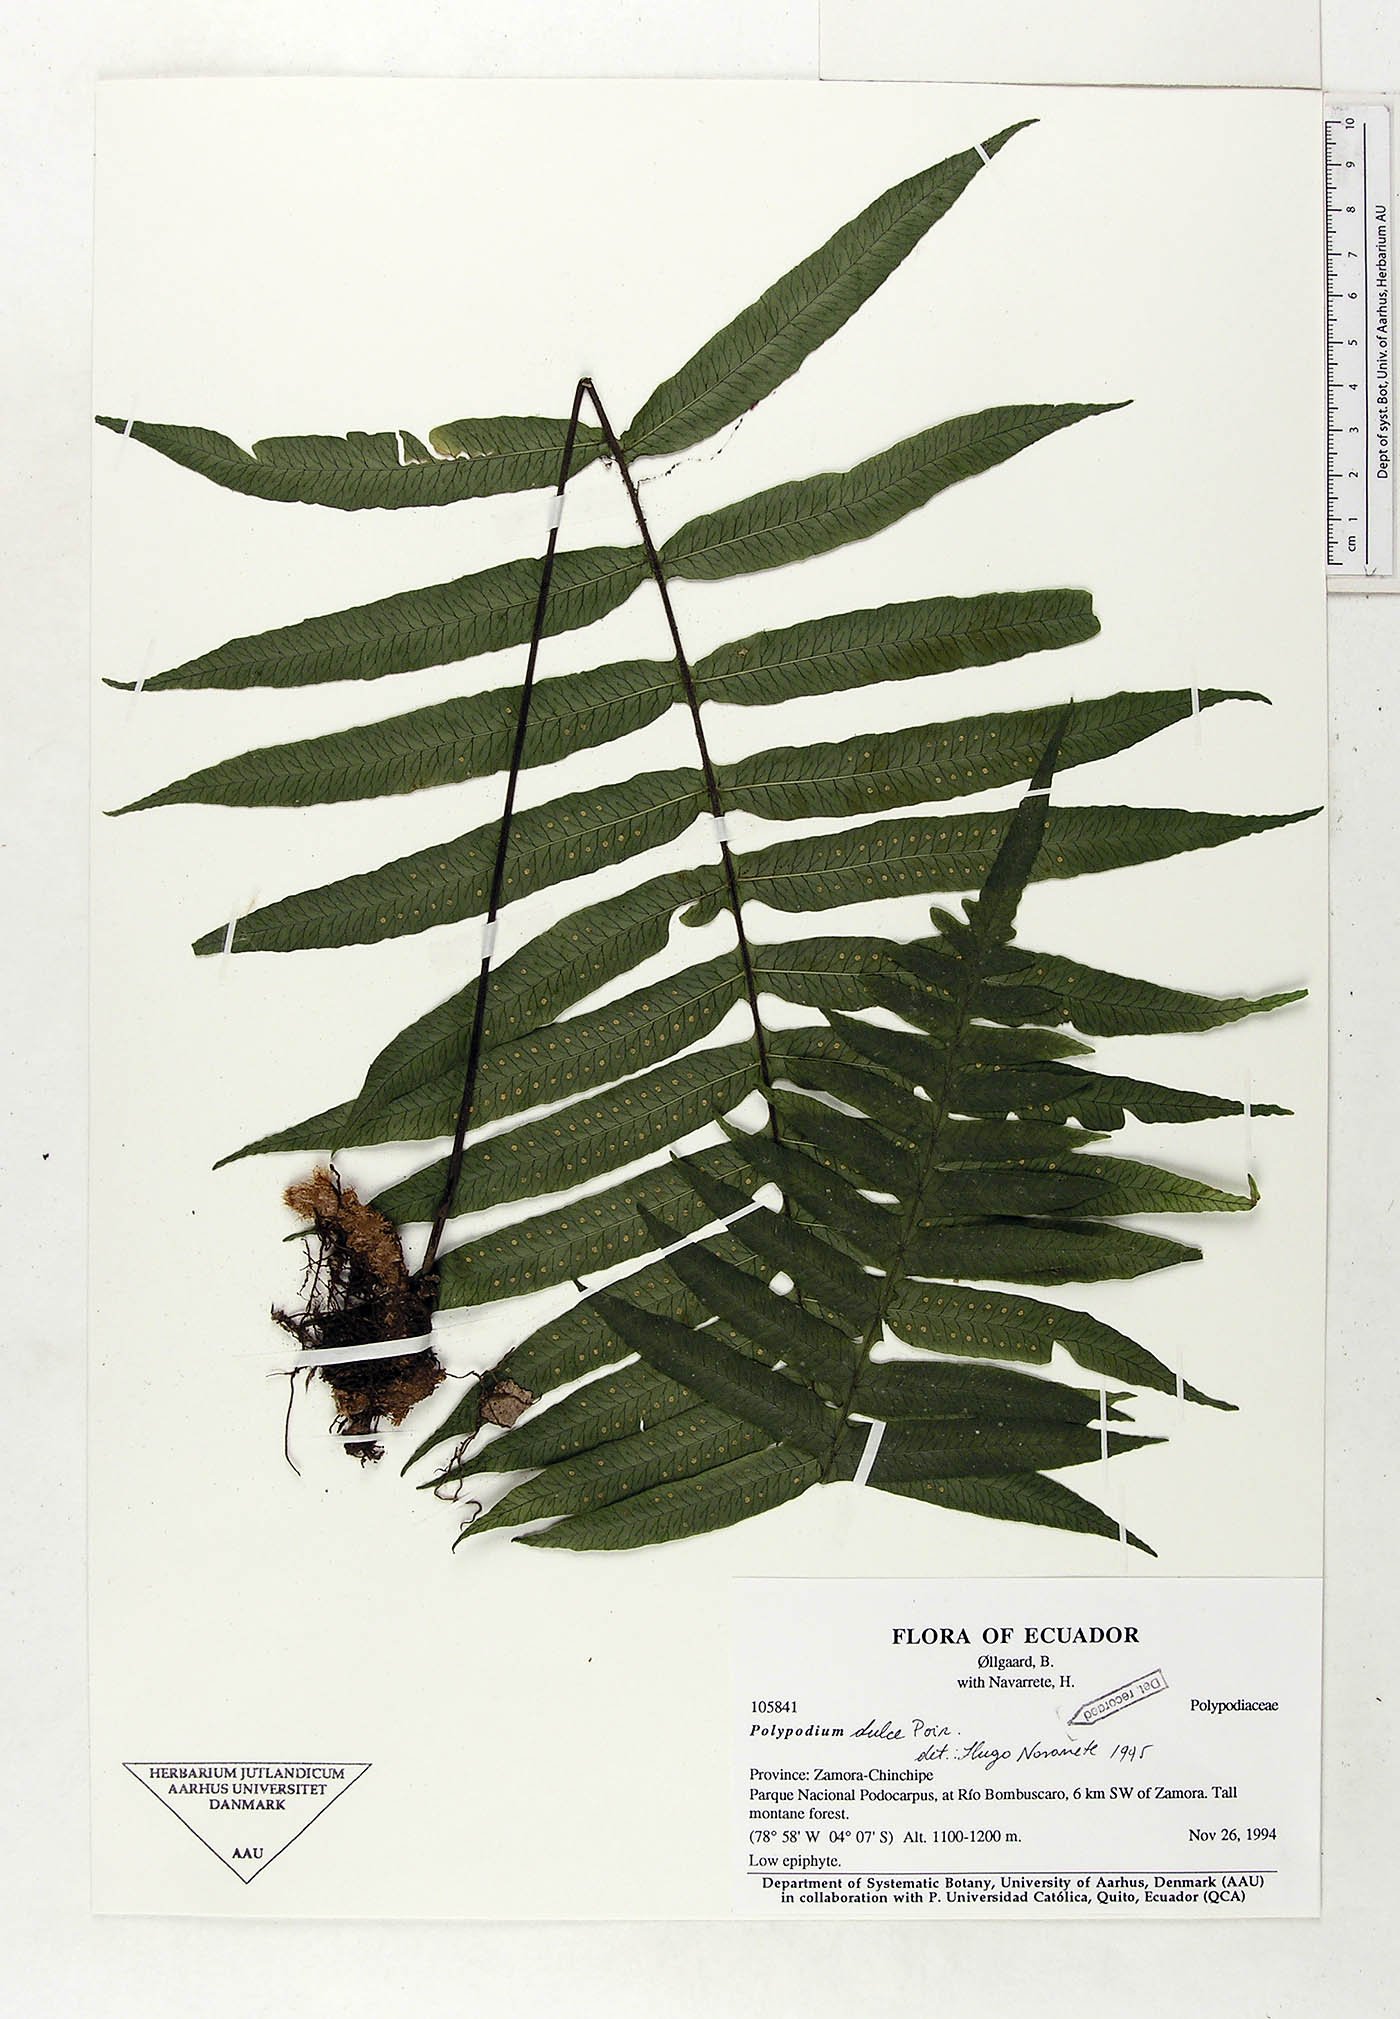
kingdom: Plantae
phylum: Tracheophyta
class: Polypodiopsida
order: Polypodiales
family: Polypodiaceae
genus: Pecluma
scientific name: Pecluma dulcis
